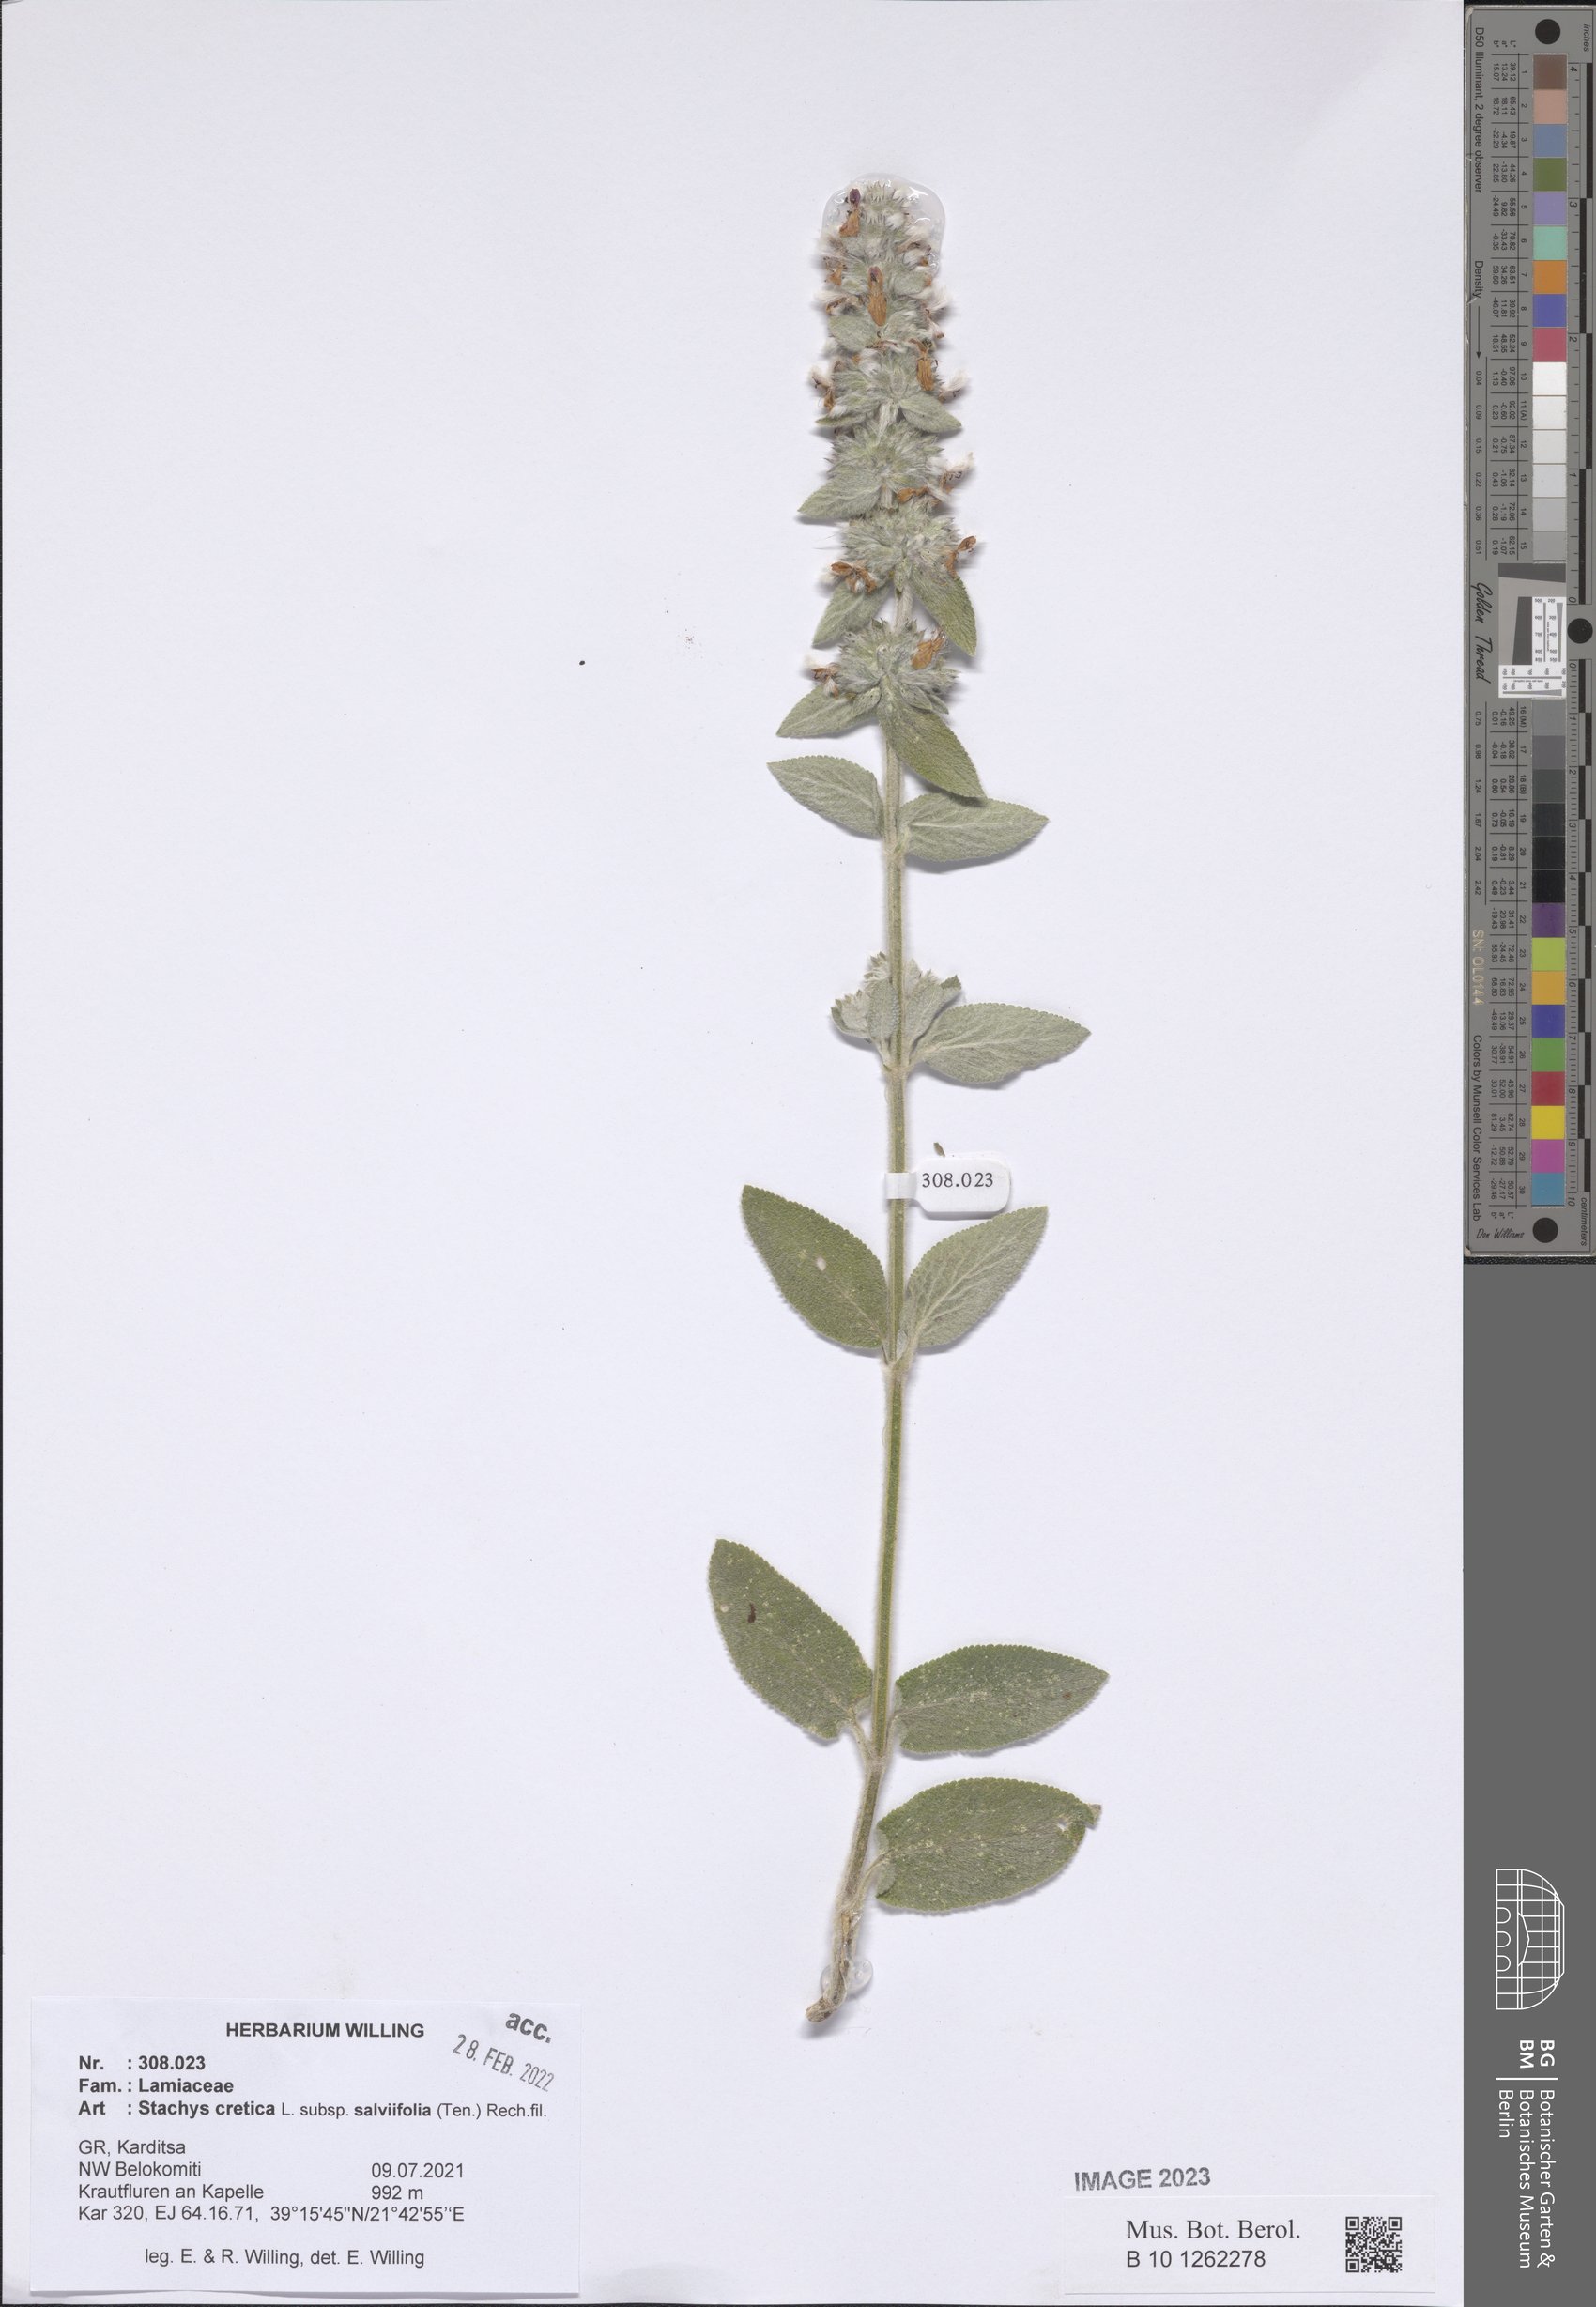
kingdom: Plantae
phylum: Tracheophyta
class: Magnoliopsida
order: Lamiales
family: Lamiaceae
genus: Stachys
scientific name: Stachys cretica
